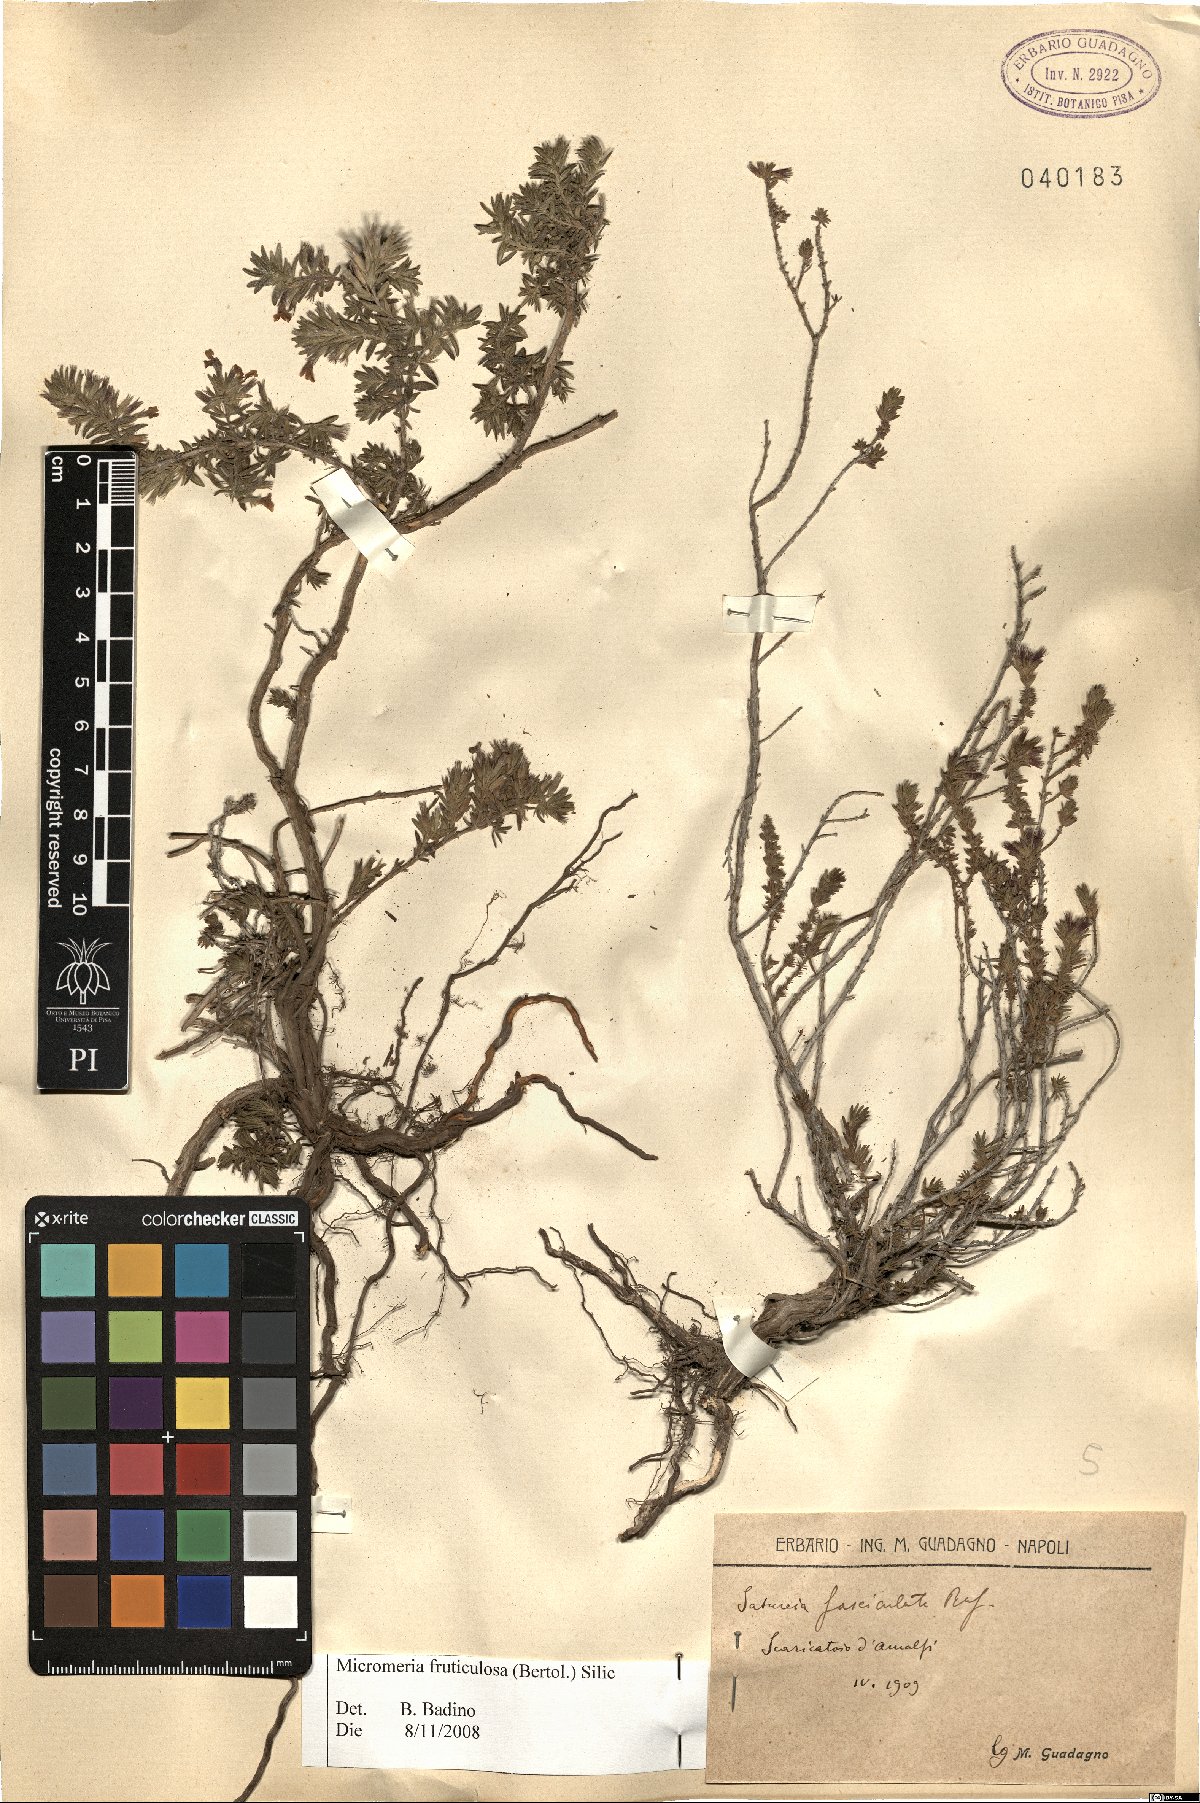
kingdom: Plantae
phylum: Tracheophyta
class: Magnoliopsida
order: Lamiales
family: Lamiaceae
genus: Micromeria
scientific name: Micromeria graeca
